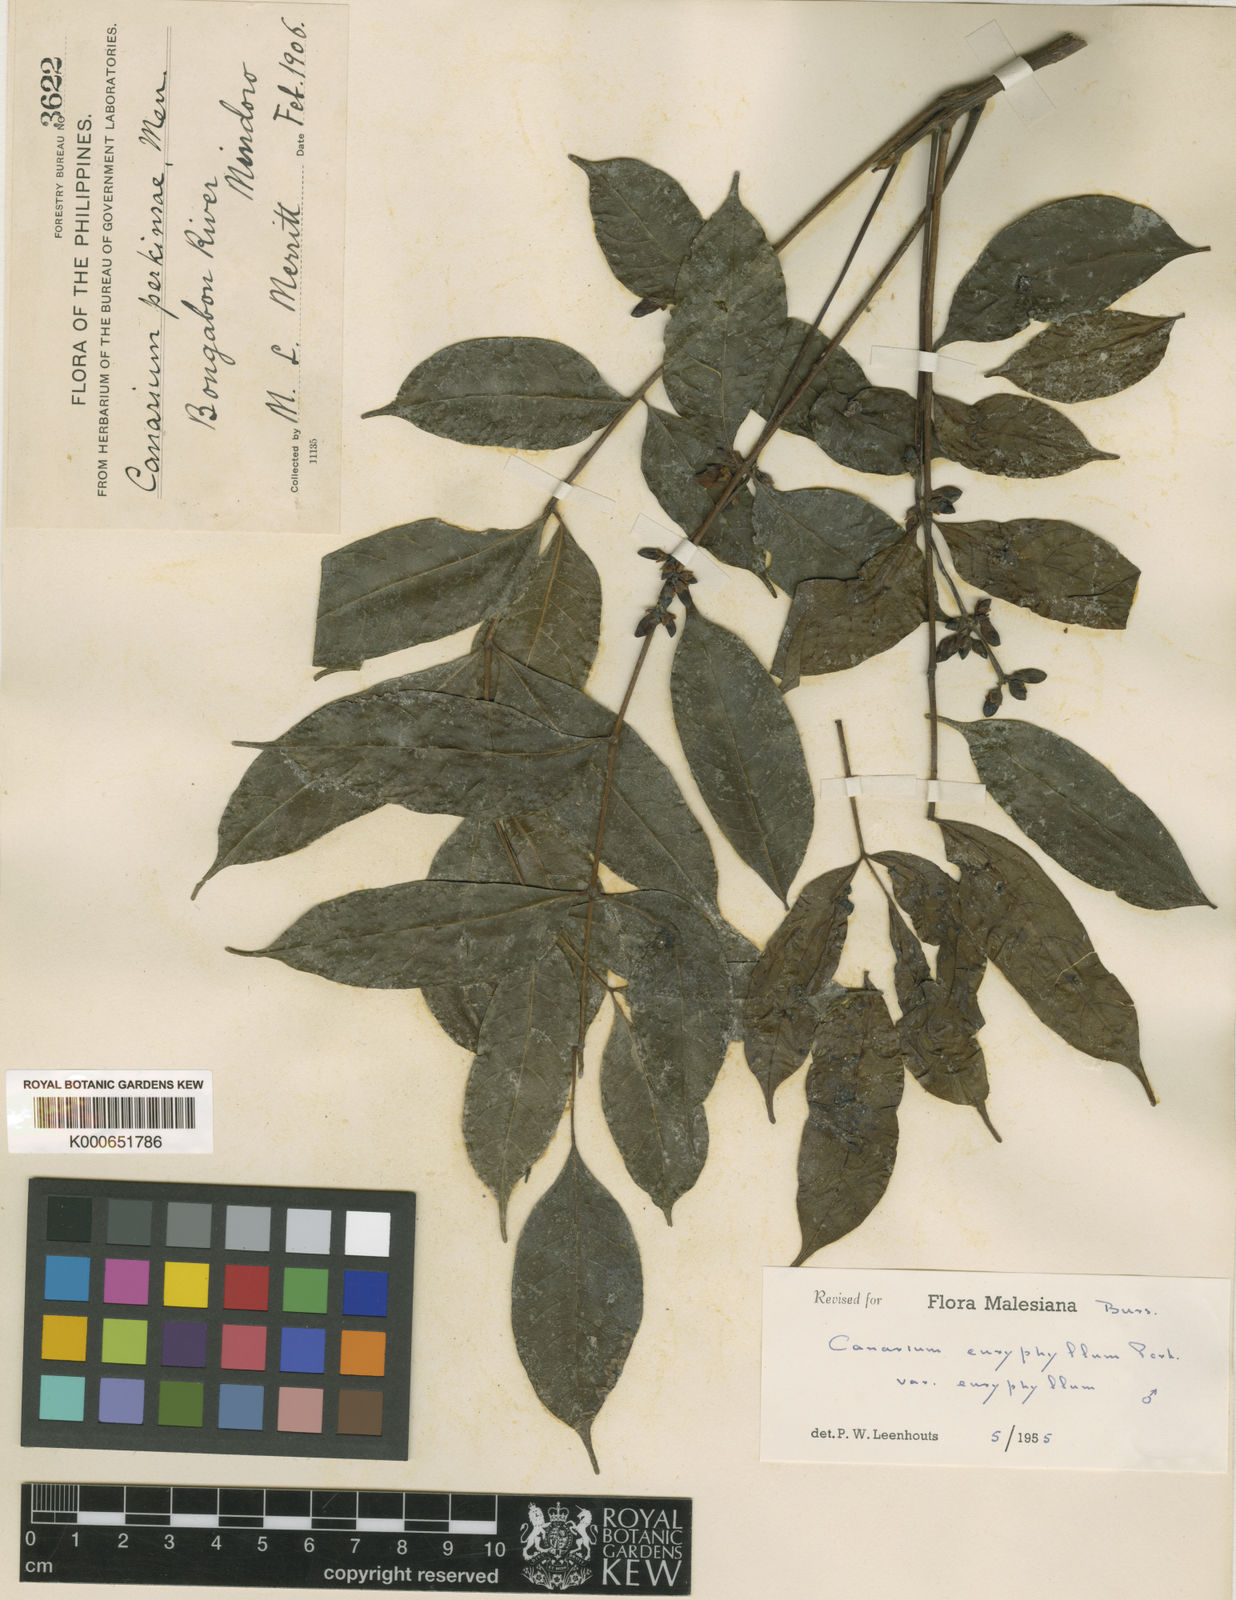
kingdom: Plantae
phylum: Tracheophyta
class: Magnoliopsida
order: Sapindales
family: Burseraceae
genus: Canarium
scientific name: Canarium euryphyllum
